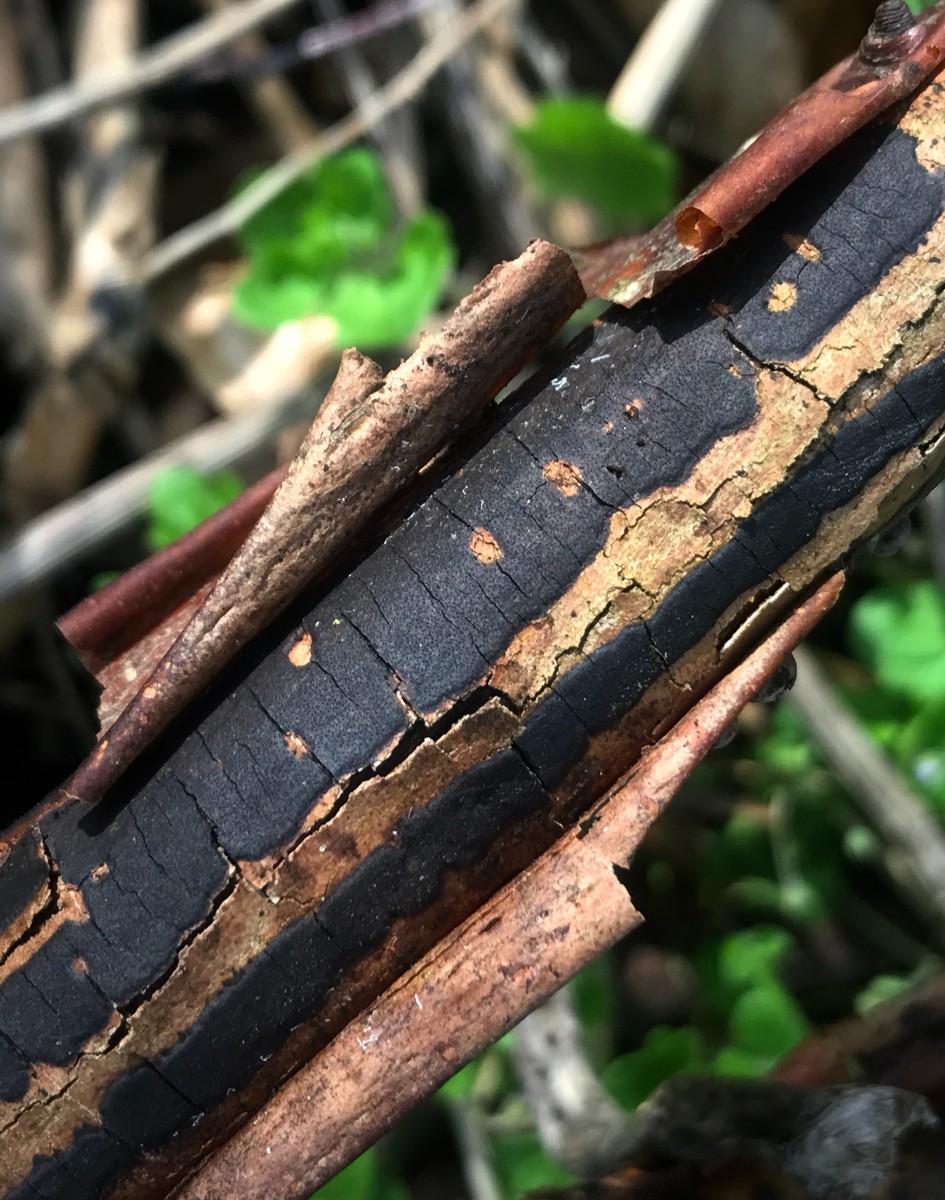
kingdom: Fungi
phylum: Ascomycota
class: Sordariomycetes
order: Xylariales
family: Diatrypaceae
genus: Diatrype
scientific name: Diatrype decorticata
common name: barksprænger-kulskorpe
